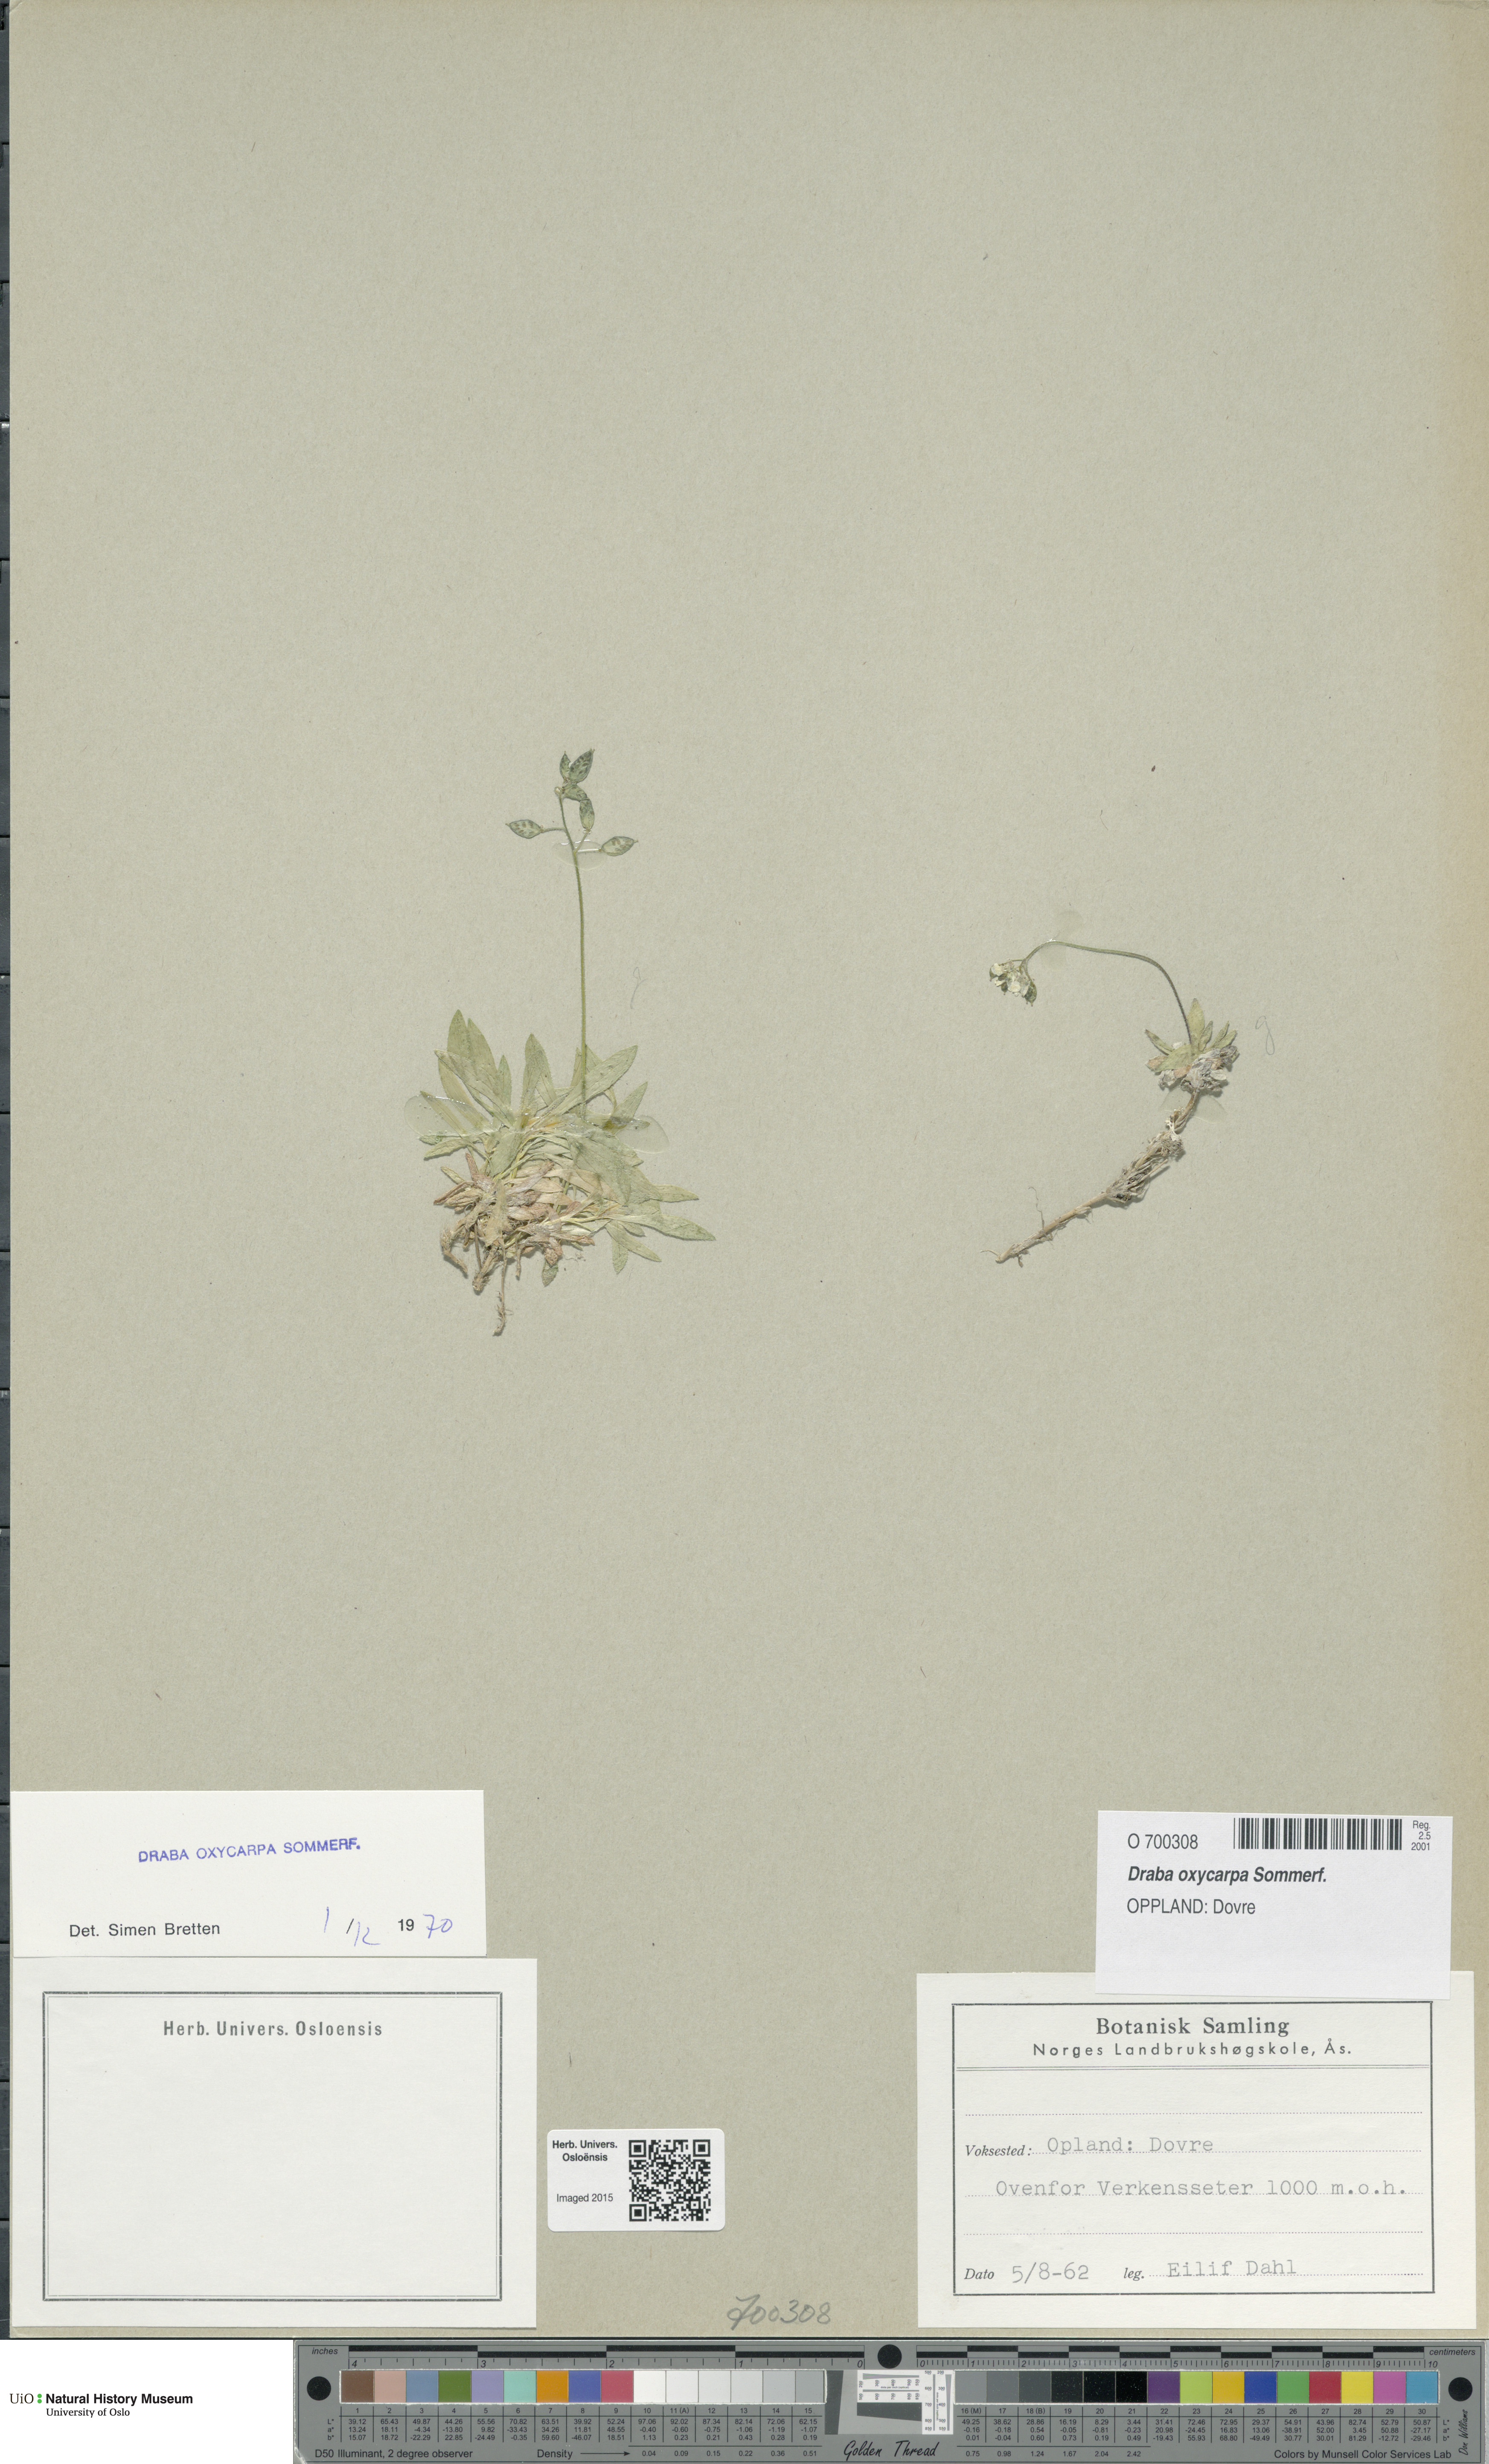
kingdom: Plantae
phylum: Tracheophyta
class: Magnoliopsida
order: Brassicales
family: Brassicaceae
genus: Draba
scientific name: Draba oxycarpa
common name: Sharp-fruited whitlow-grass
